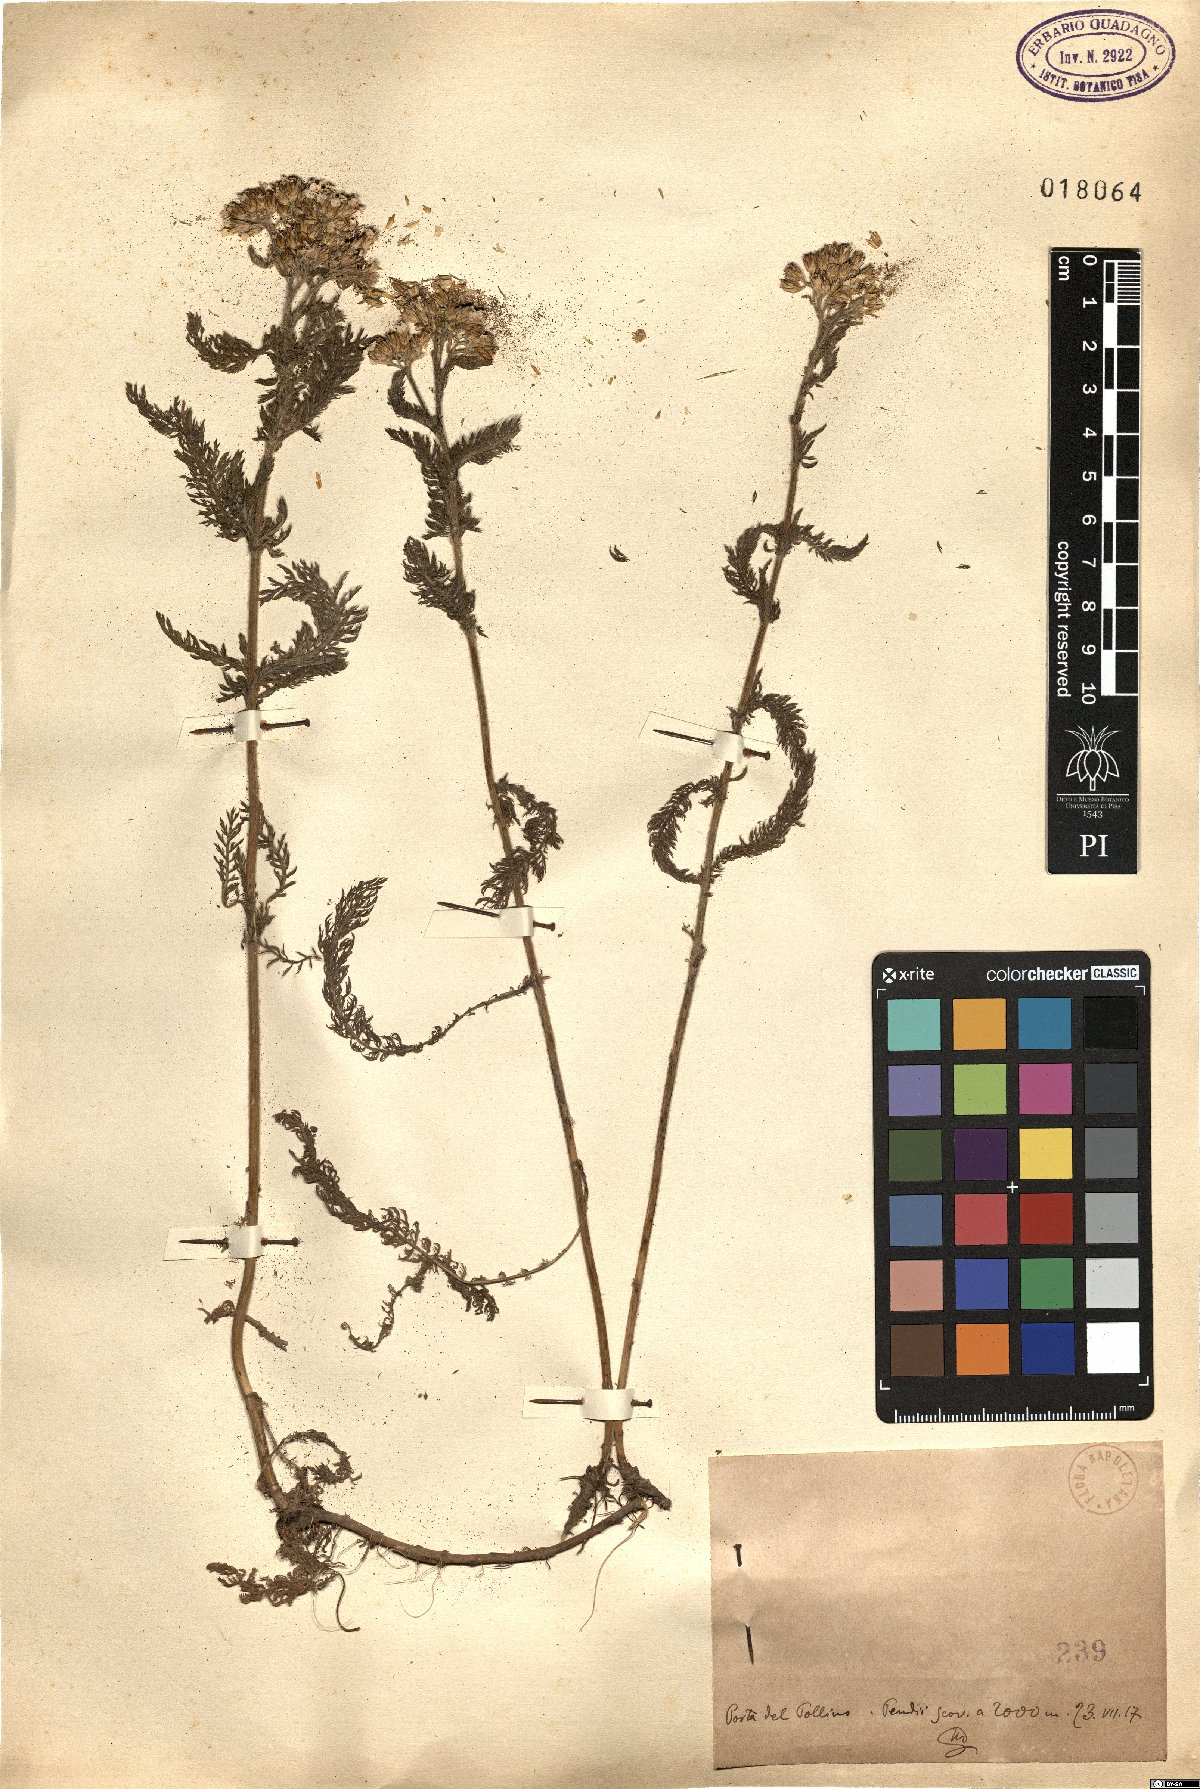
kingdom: Plantae
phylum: Tracheophyta
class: Magnoliopsida
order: Asterales
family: Asteraceae
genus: Achillea
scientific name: Achillea
